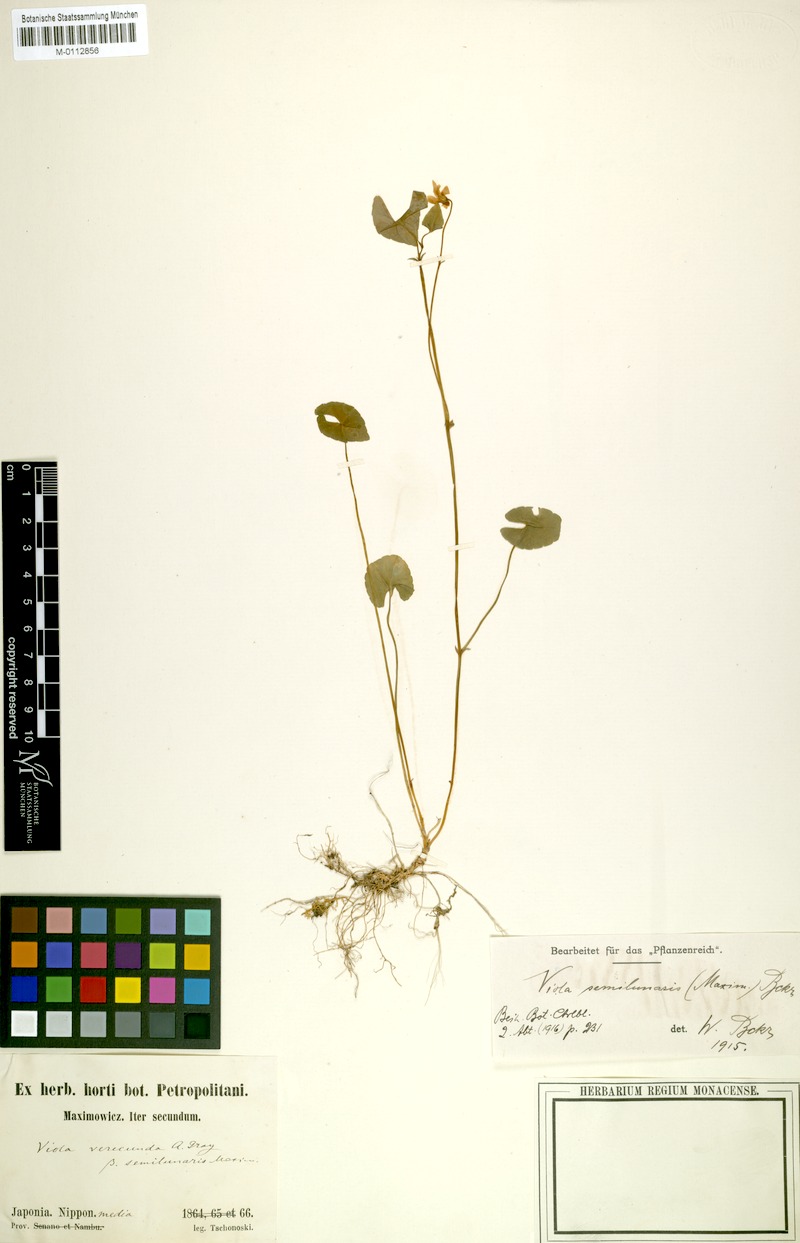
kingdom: Plantae
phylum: Tracheophyta
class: Magnoliopsida
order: Malpighiales
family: Violaceae
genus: Viola
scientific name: Viola hamiltoniana
